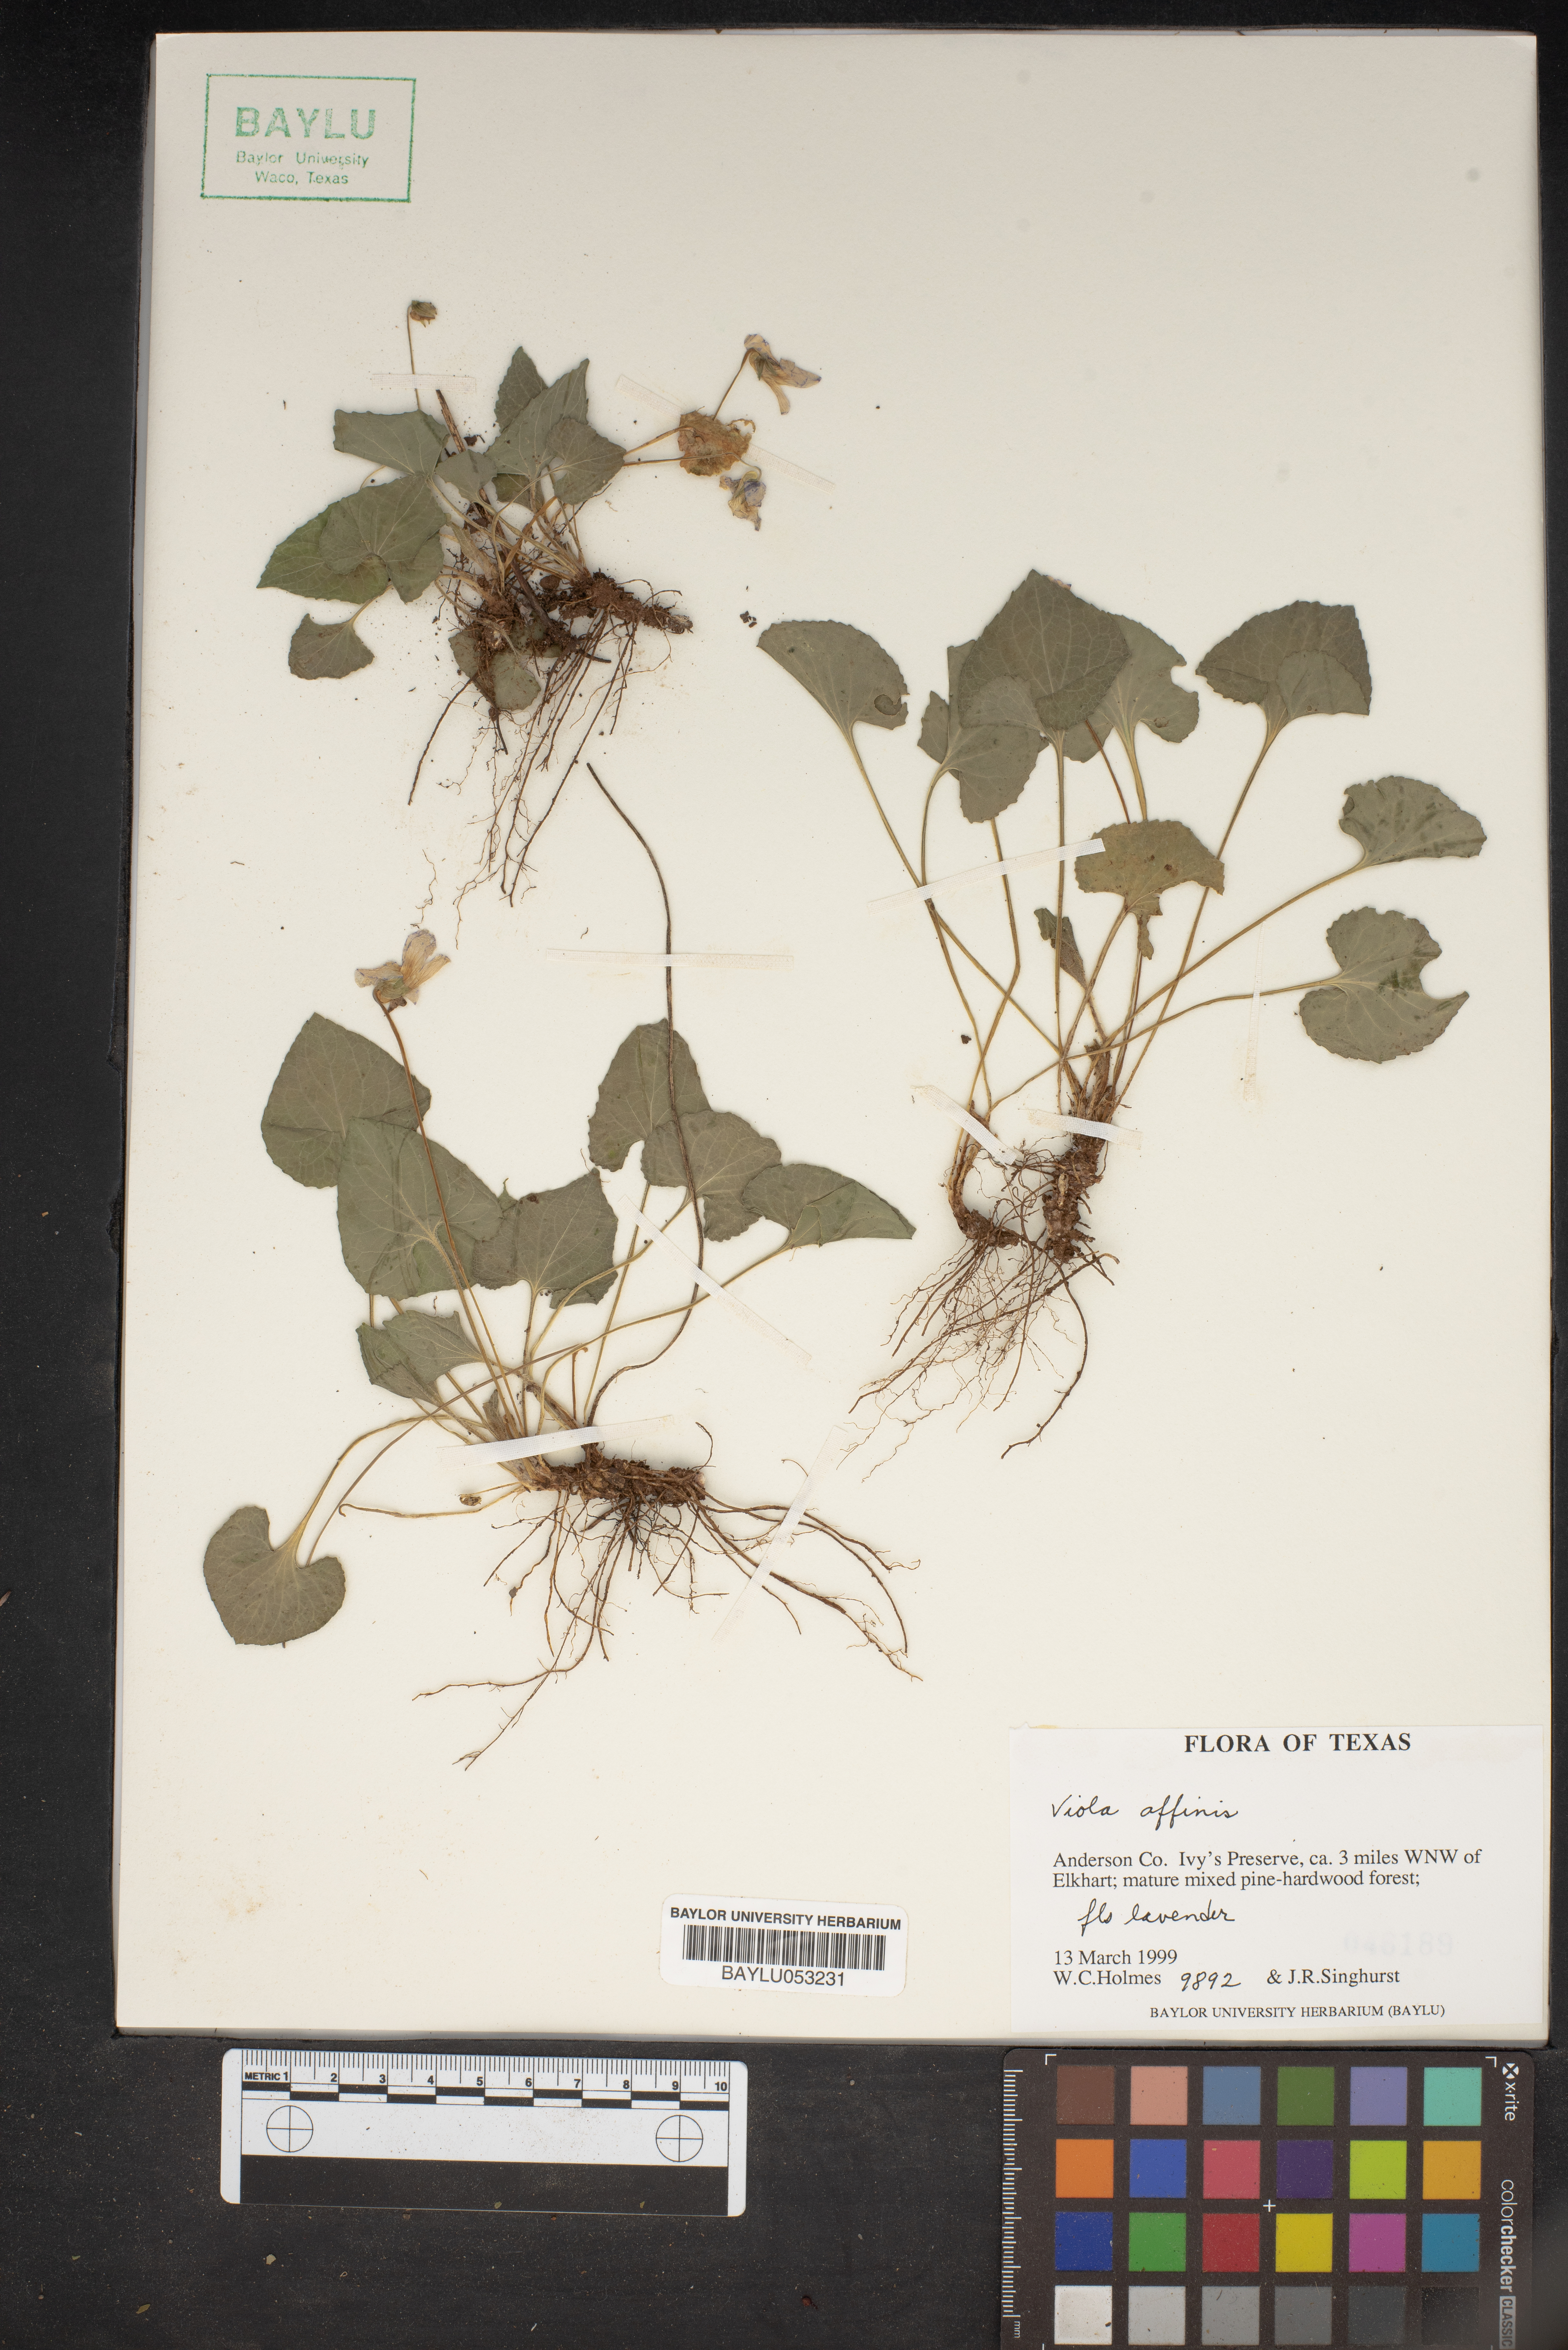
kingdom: Plantae
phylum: Tracheophyta
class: Magnoliopsida
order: Malpighiales
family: Violaceae
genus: Viola
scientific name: Viola affinis
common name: Leconte's violet
